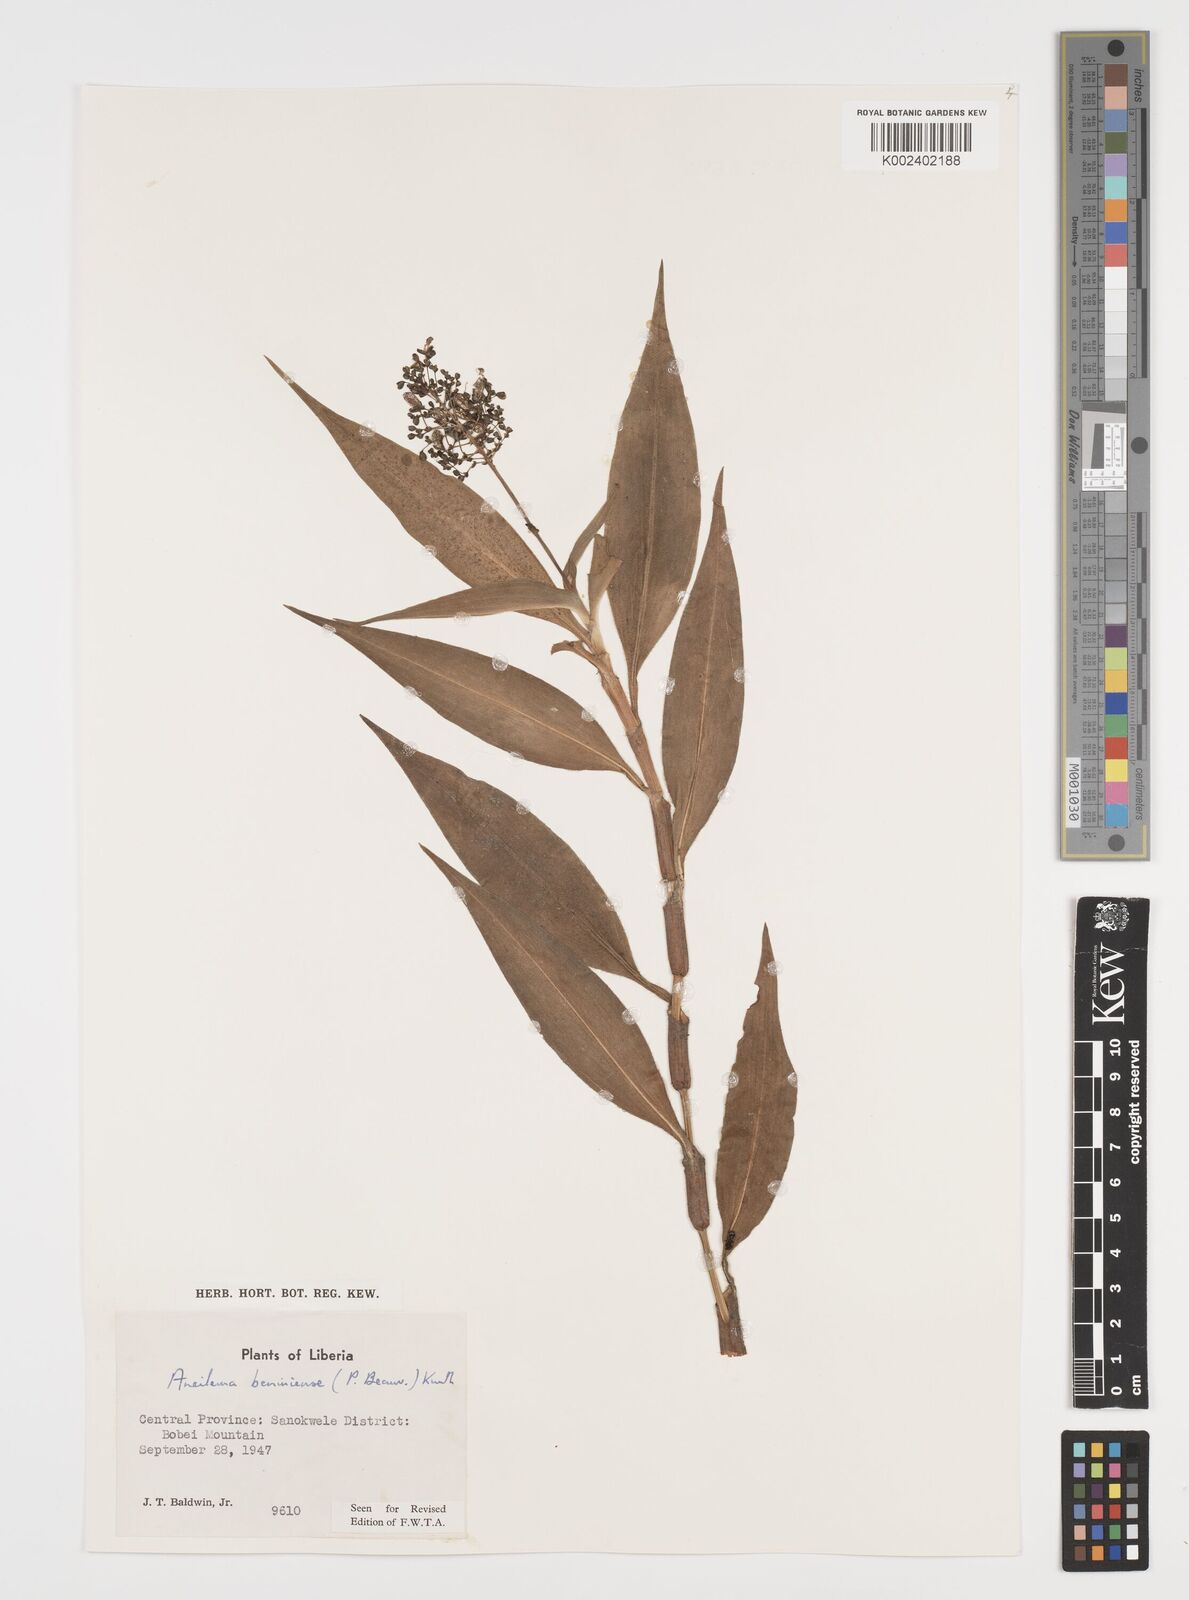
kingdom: Plantae
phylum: Tracheophyta
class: Liliopsida
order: Commelinales
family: Commelinaceae
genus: Aneilema
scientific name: Aneilema beniniense
